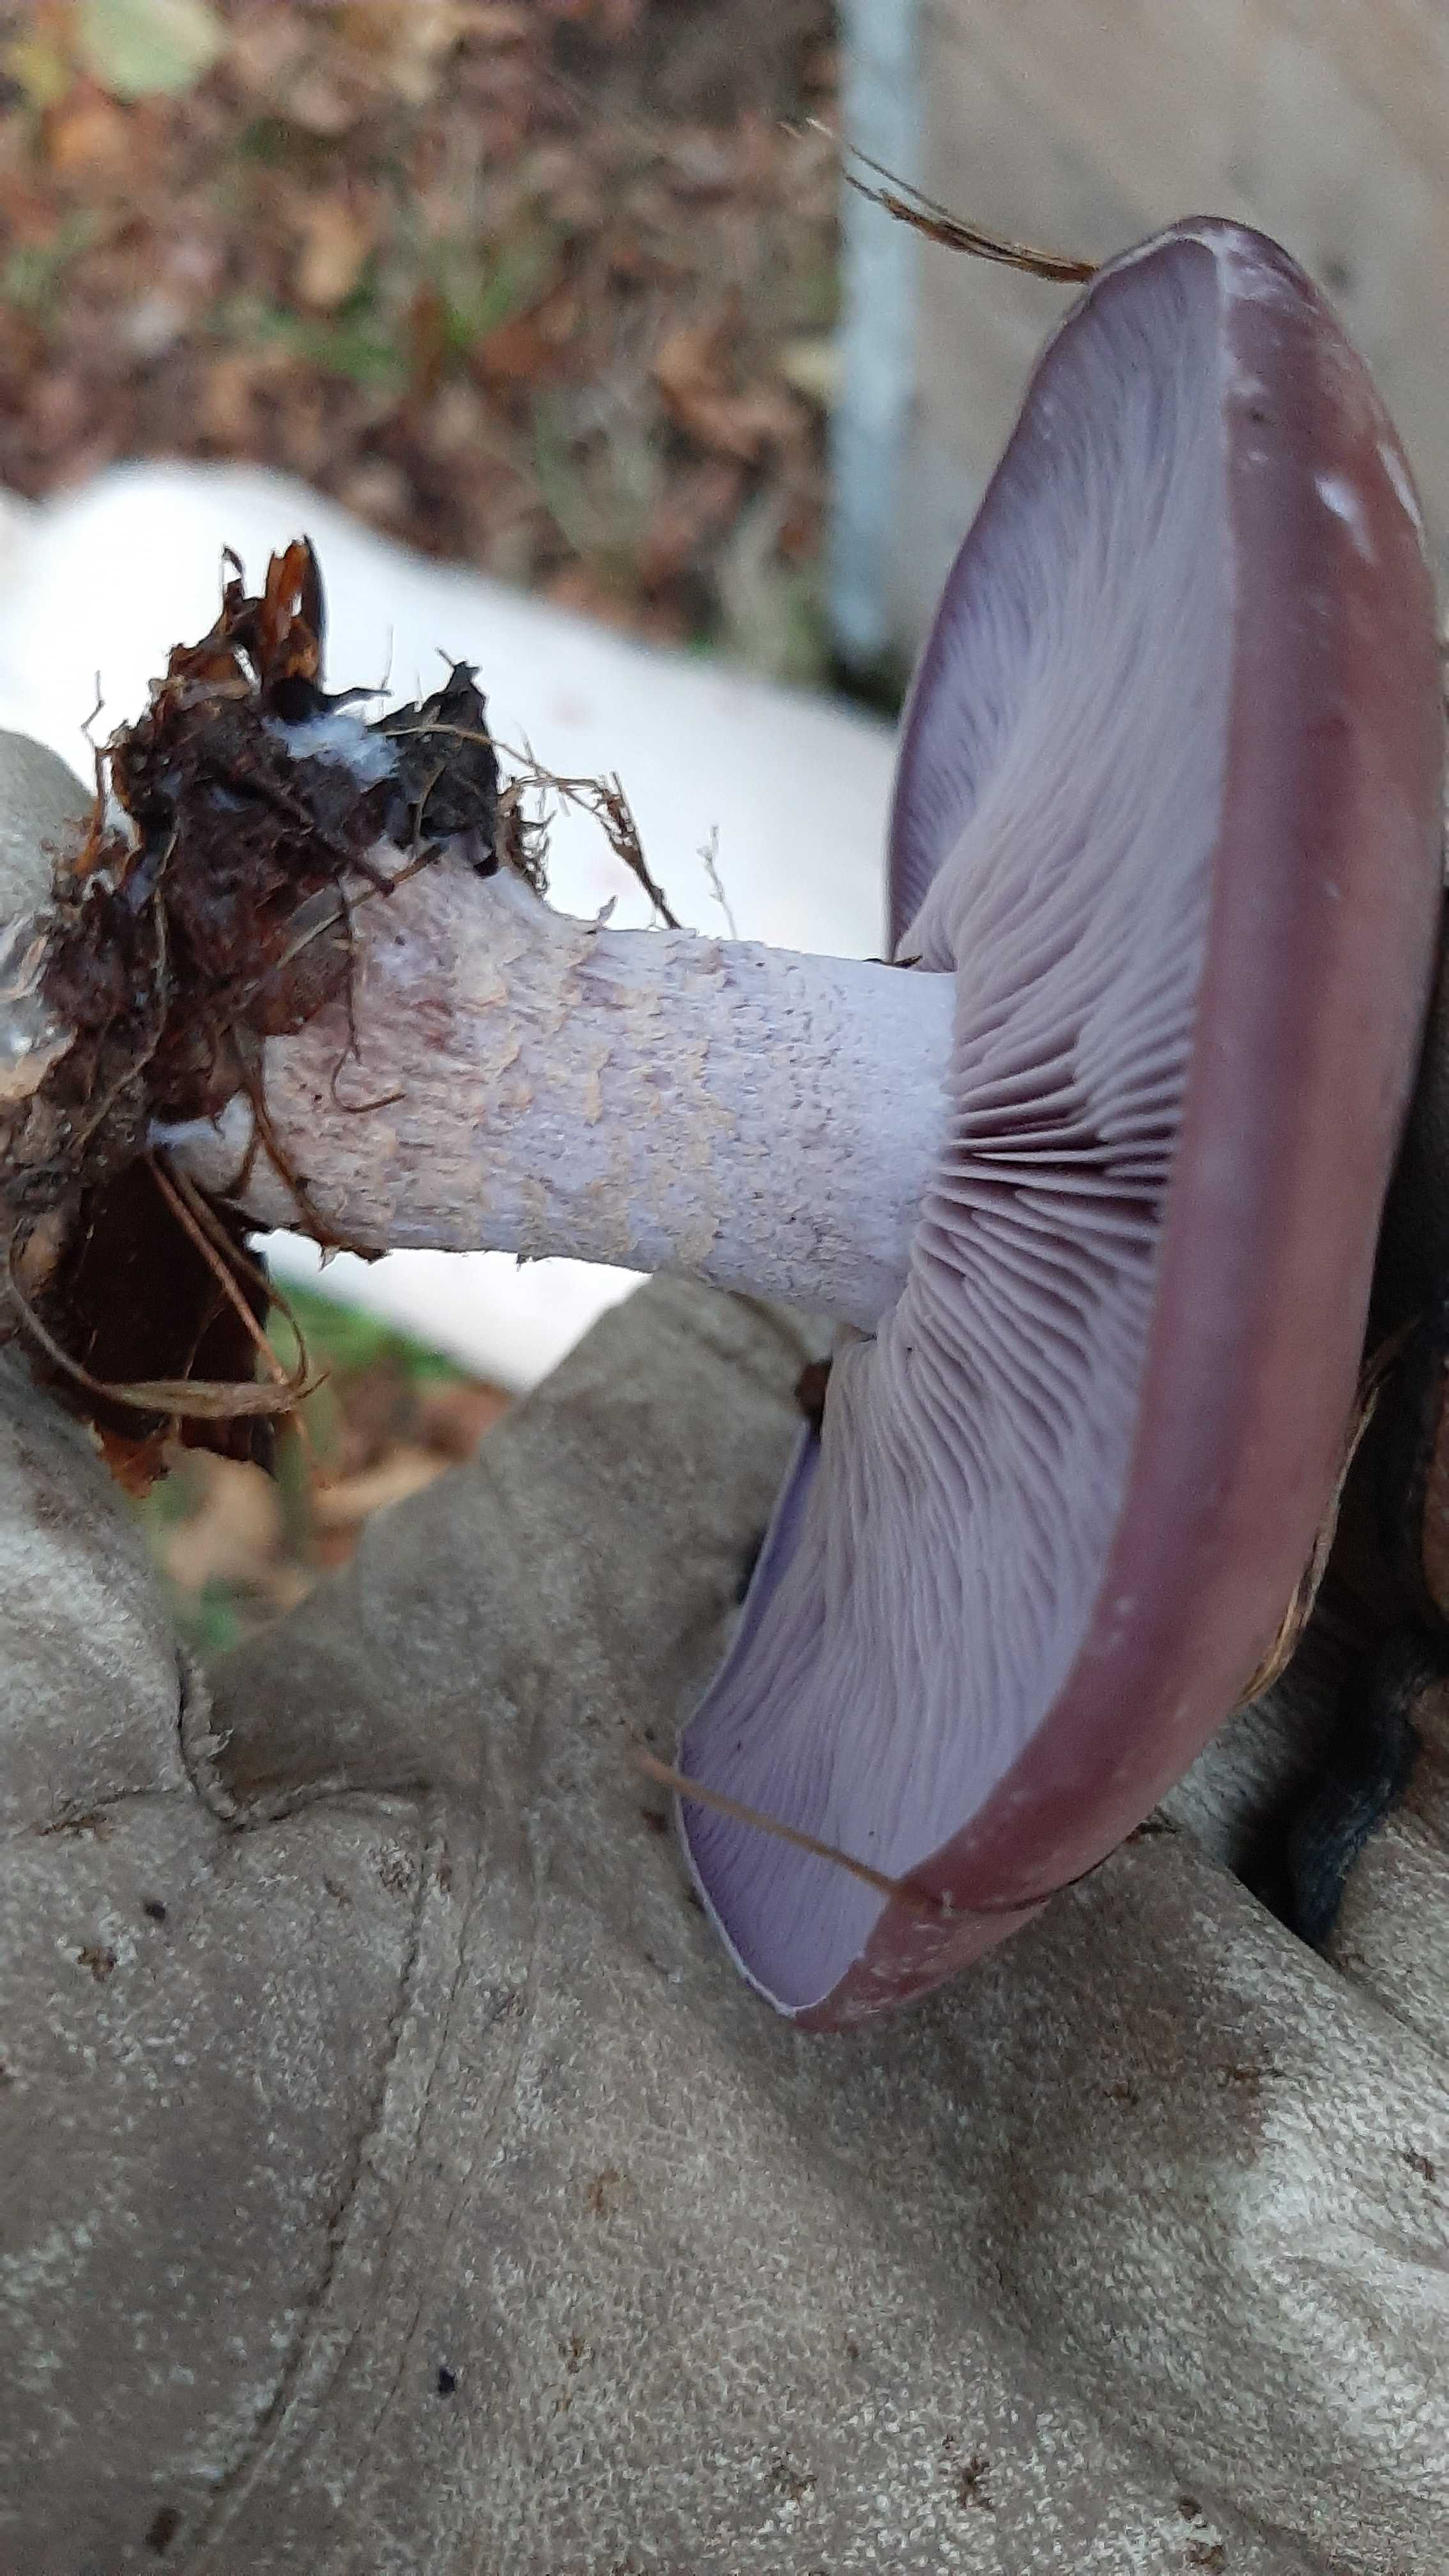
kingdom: Fungi
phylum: Basidiomycota
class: Agaricomycetes
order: Agaricales
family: Tricholomataceae
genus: Lepista
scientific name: Lepista nuda
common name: violet hekseringshat
